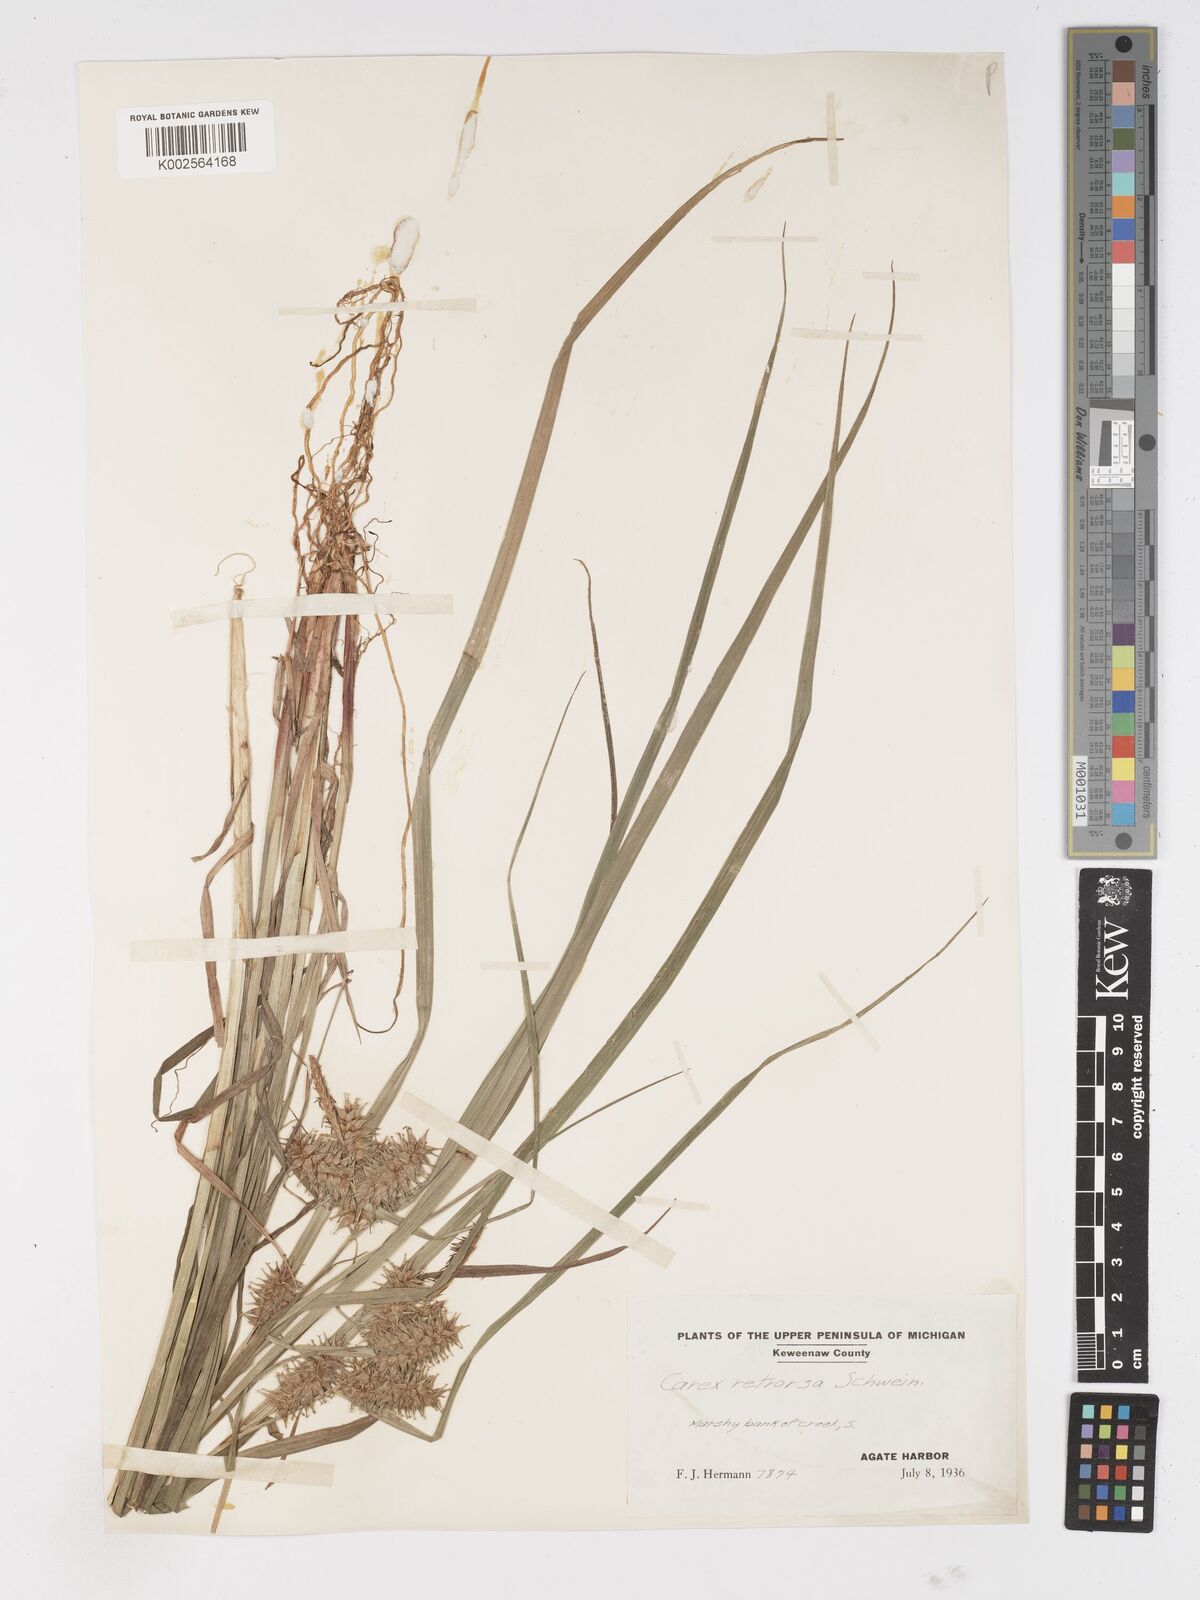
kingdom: Plantae
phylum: Tracheophyta
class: Liliopsida
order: Poales
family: Cyperaceae
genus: Carex
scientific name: Carex retrorsa
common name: Knot-sheath sedge
